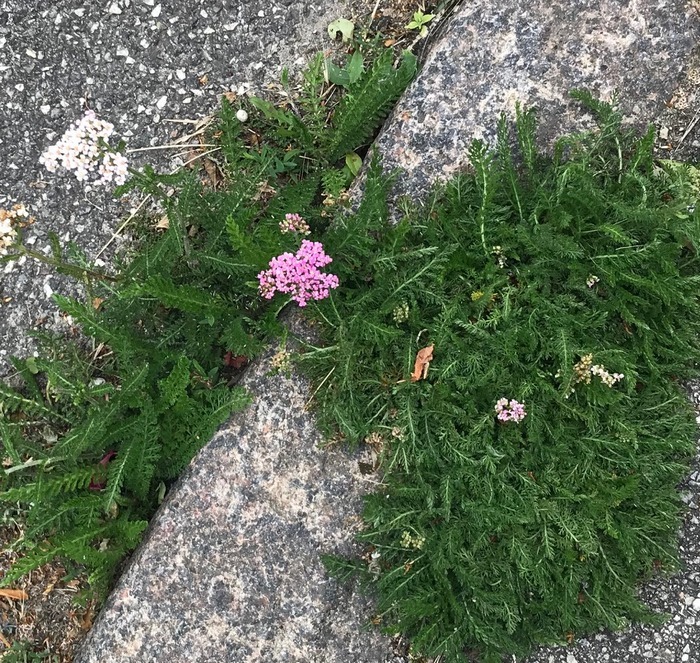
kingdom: Plantae
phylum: Tracheophyta
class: Magnoliopsida
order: Asterales
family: Asteraceae
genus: Achillea
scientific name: Achillea millefolium
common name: Almindelig røllike
